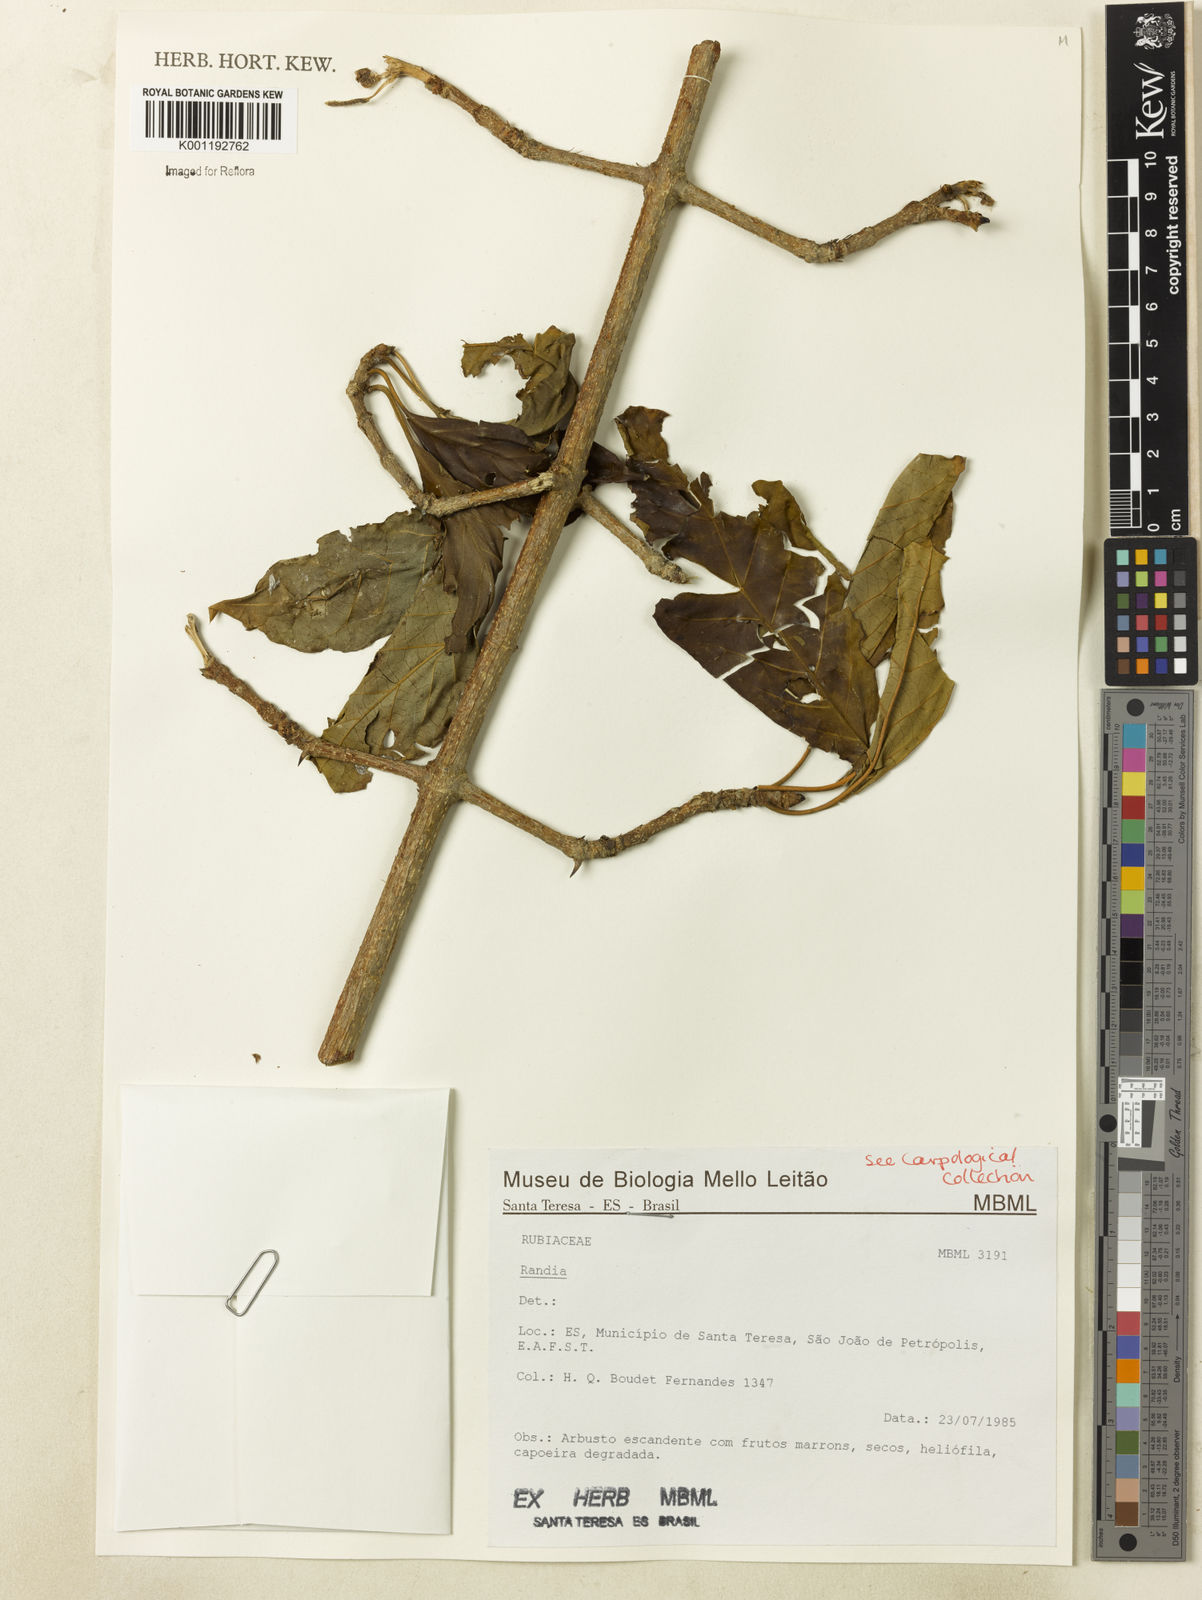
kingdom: Plantae
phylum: Tracheophyta
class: Magnoliopsida
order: Gentianales
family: Rubiaceae
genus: Randia
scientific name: Randia
